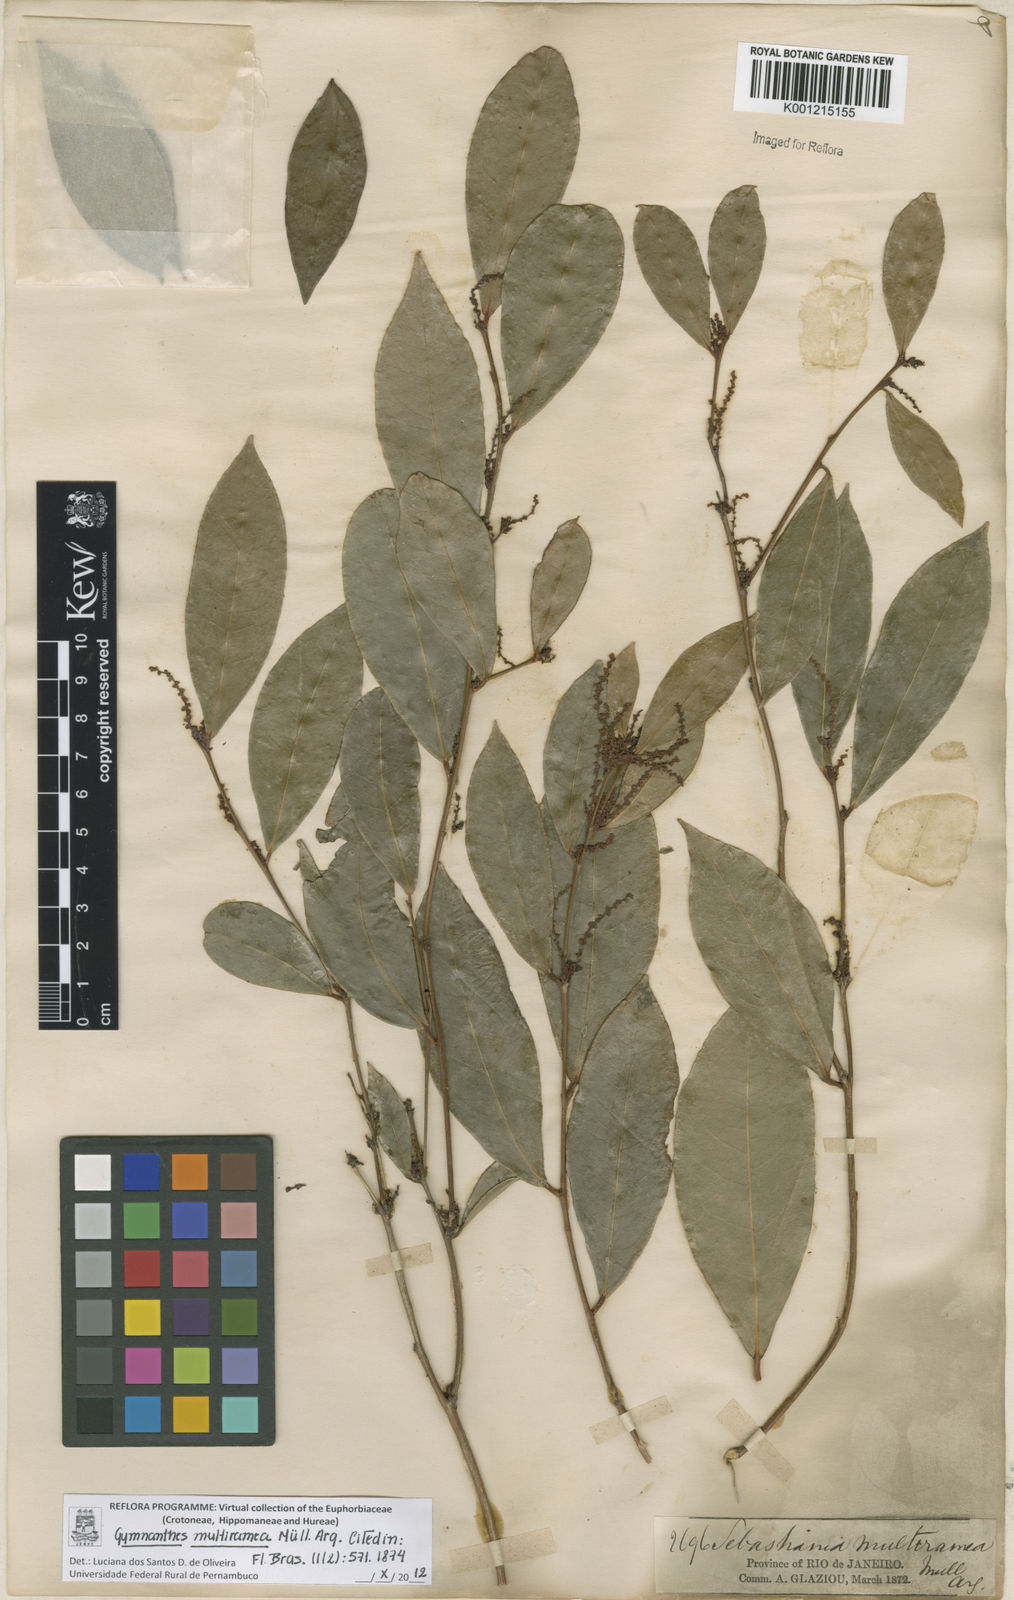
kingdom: Plantae
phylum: Tracheophyta
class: Magnoliopsida
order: Malpighiales
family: Euphorbiaceae
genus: Gymnanthes
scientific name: Gymnanthes
